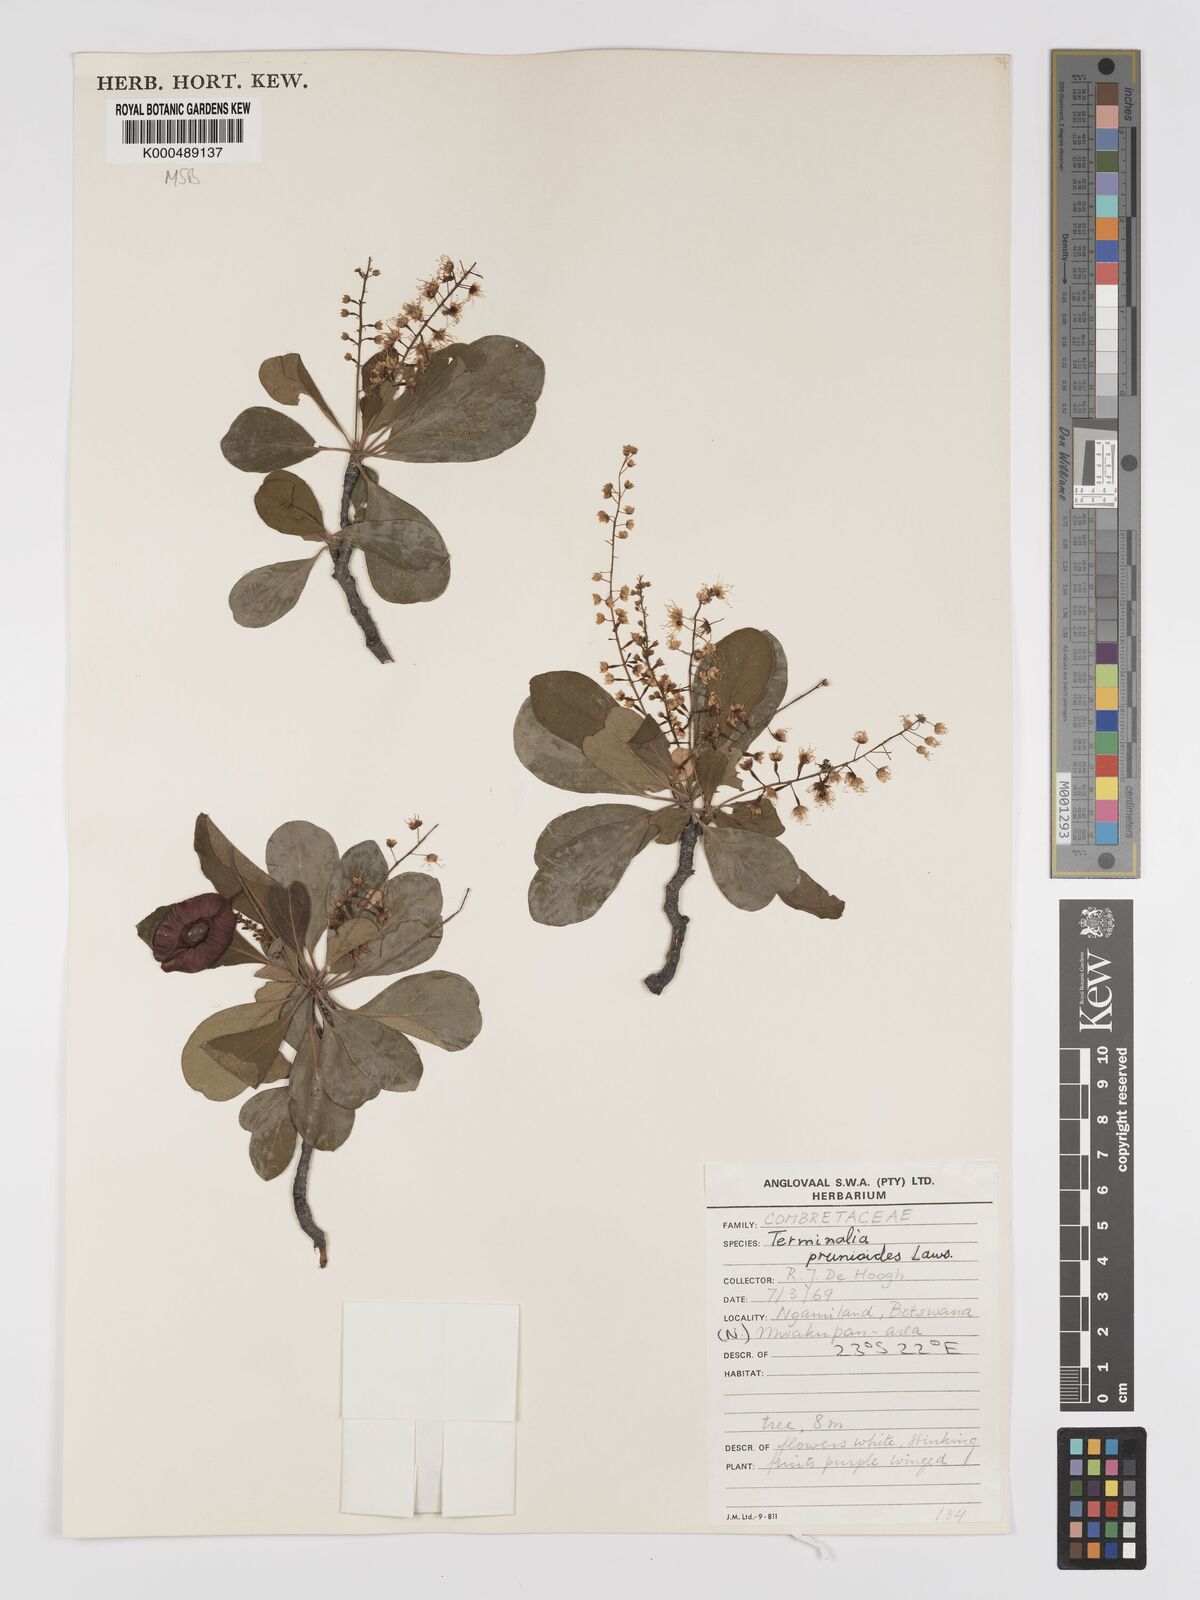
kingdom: Plantae
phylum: Tracheophyta
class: Magnoliopsida
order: Myrtales
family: Combretaceae
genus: Terminalia
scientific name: Terminalia prunioides
